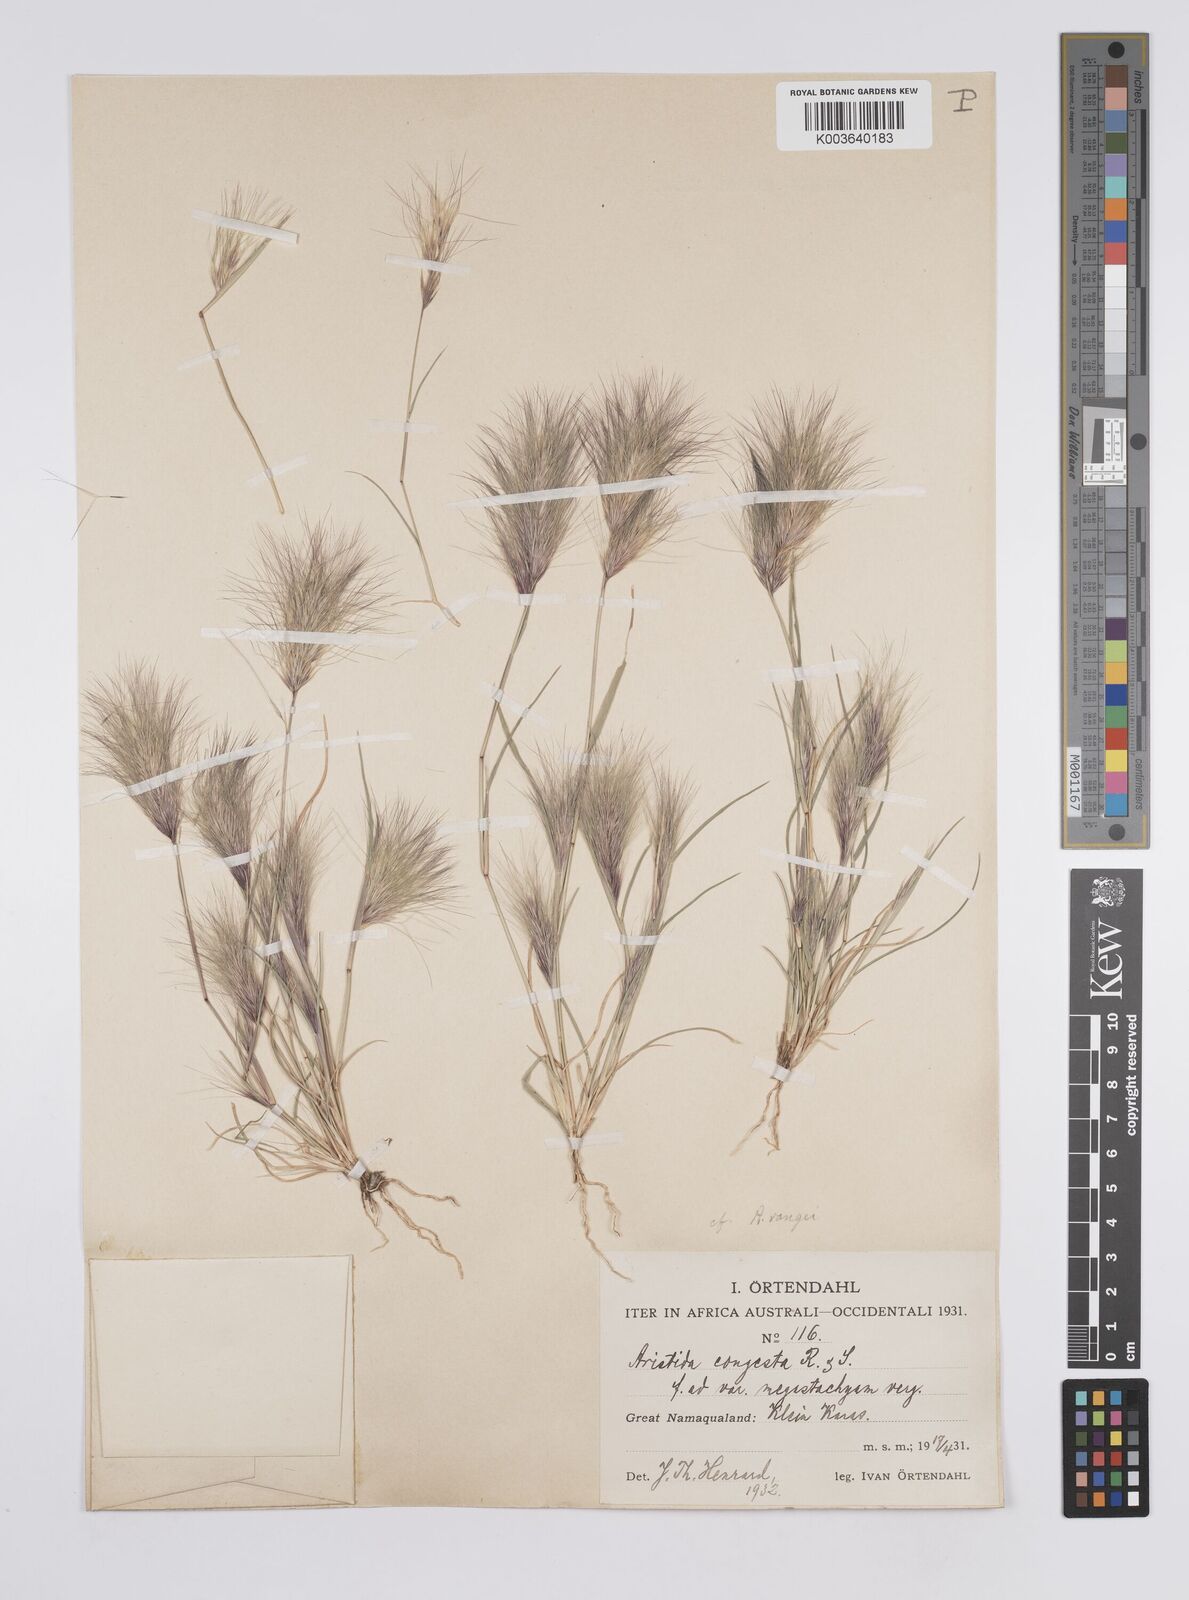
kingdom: Plantae
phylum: Tracheophyta
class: Liliopsida
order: Poales
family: Poaceae
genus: Aristida
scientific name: Aristida congesta
